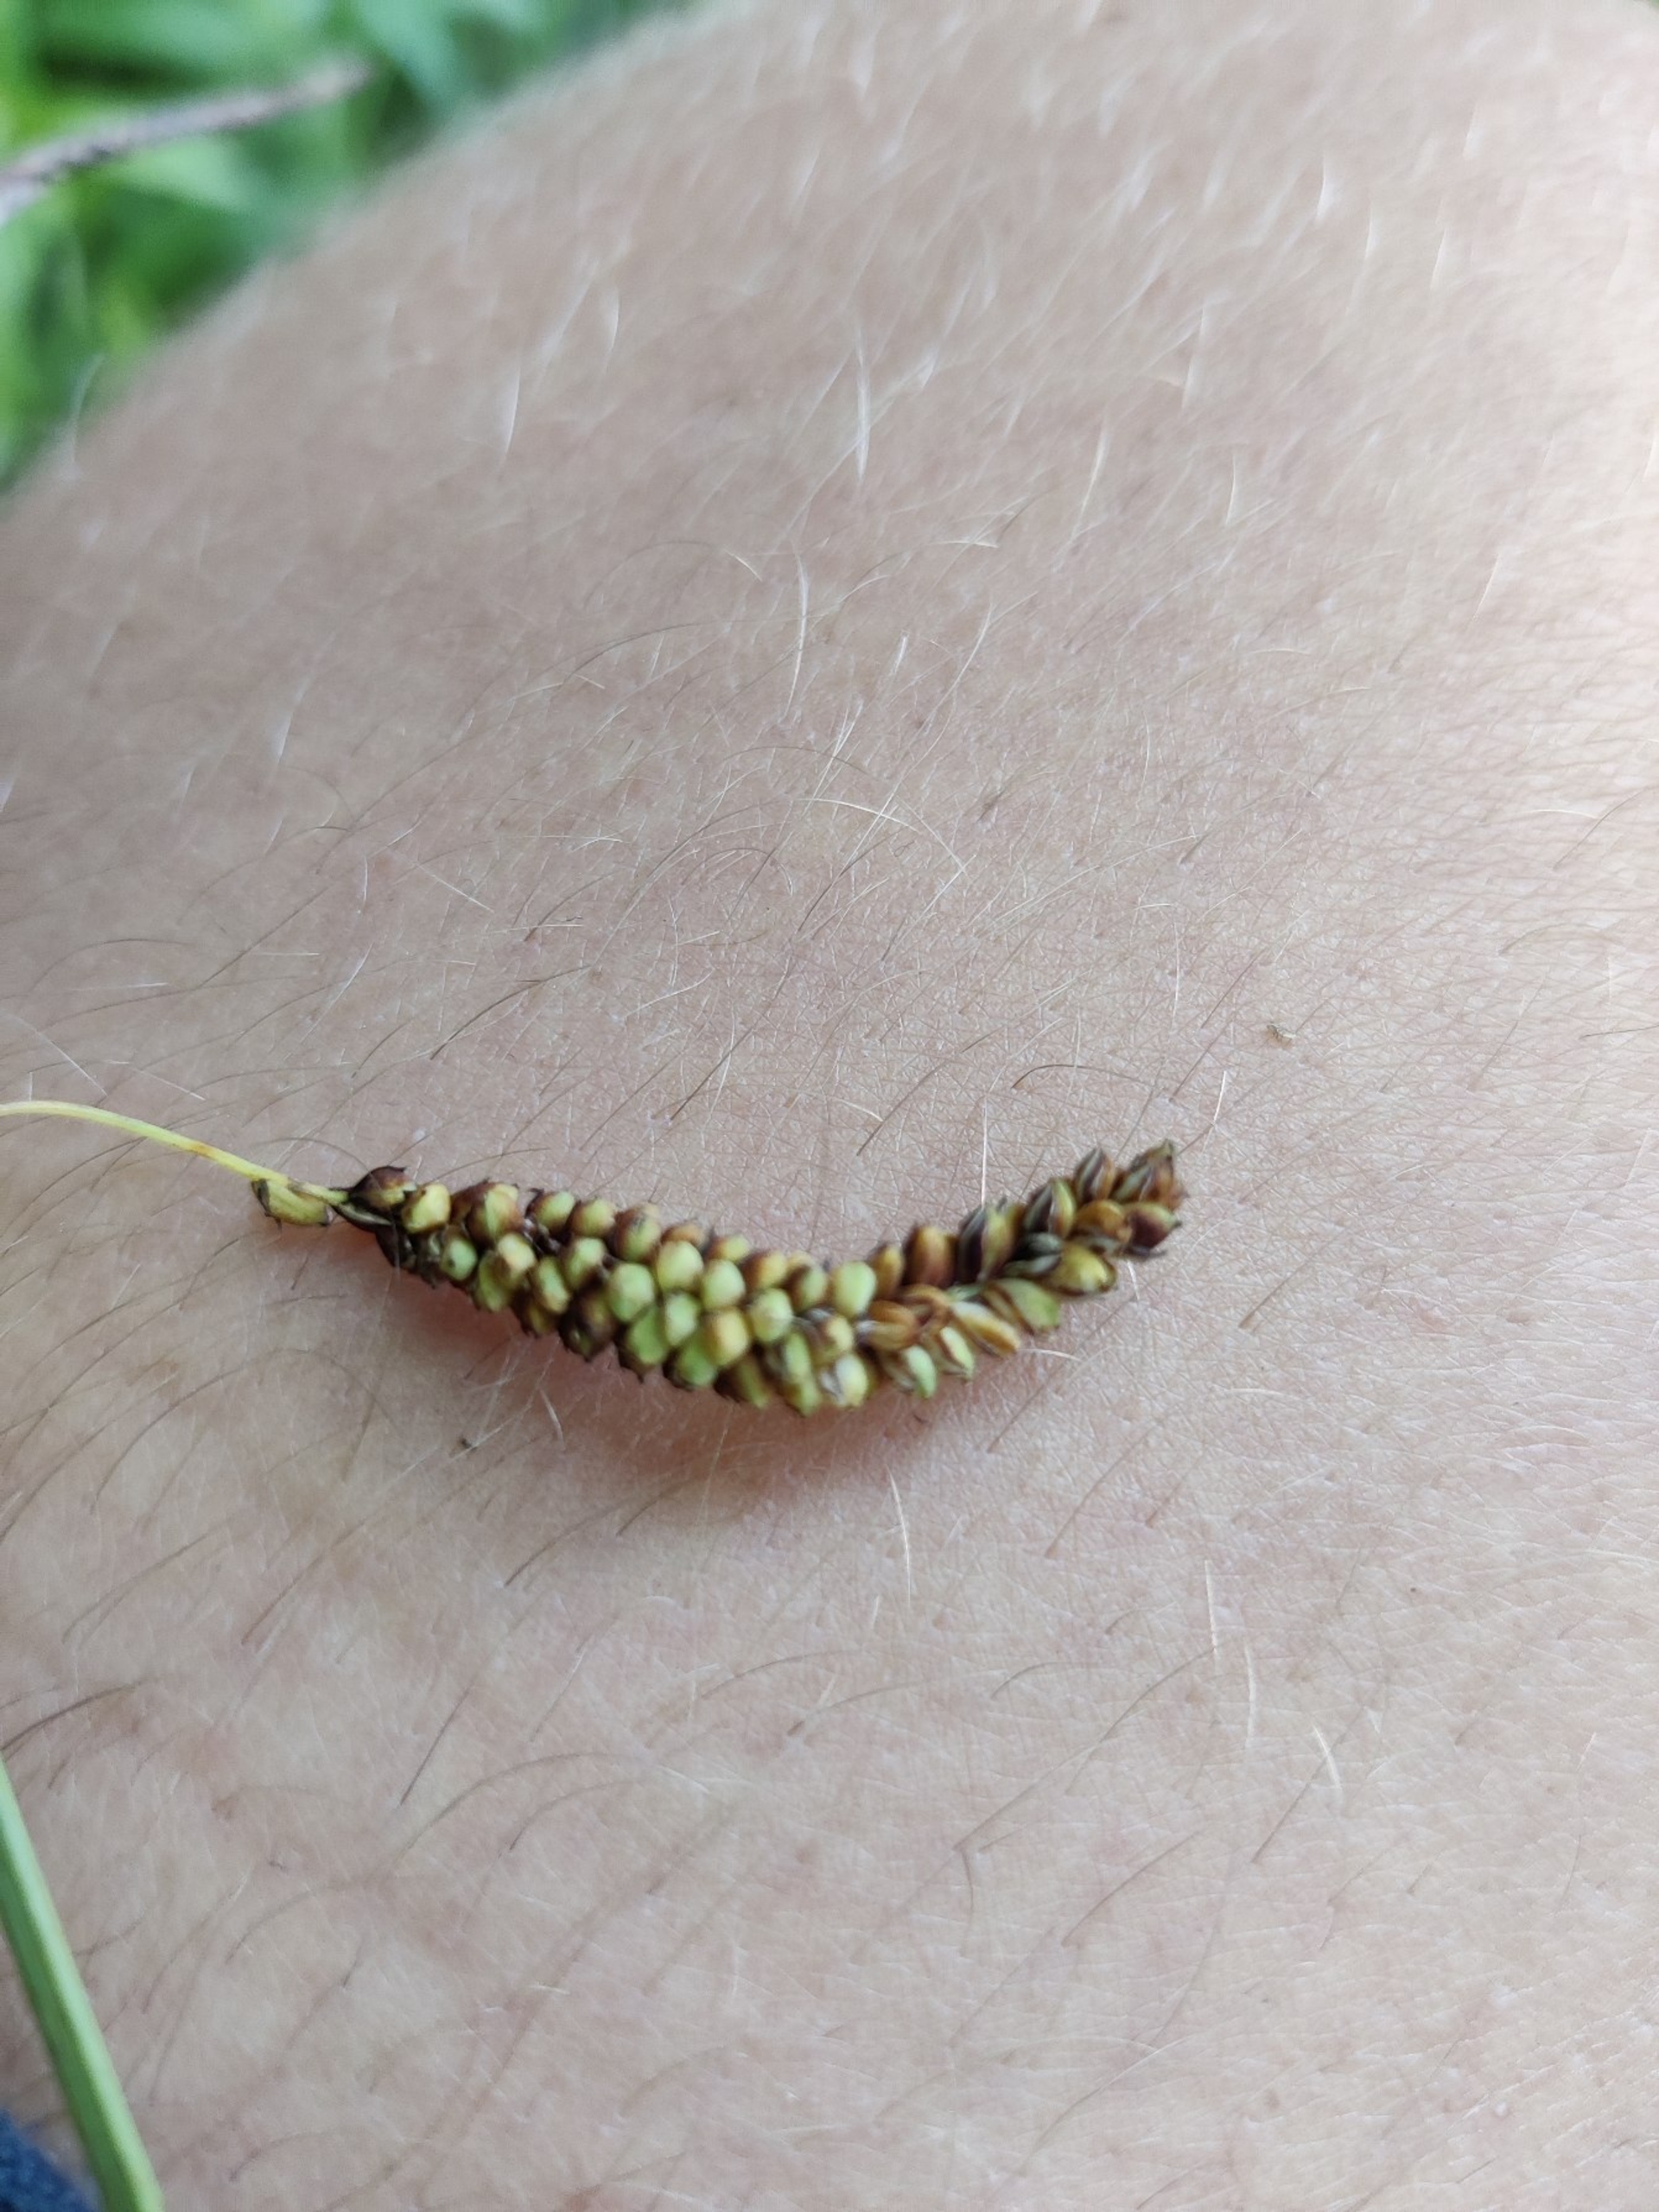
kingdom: Plantae
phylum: Tracheophyta
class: Liliopsida
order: Poales
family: Cyperaceae
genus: Carex
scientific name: Carex flacca
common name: Blågrøn star
